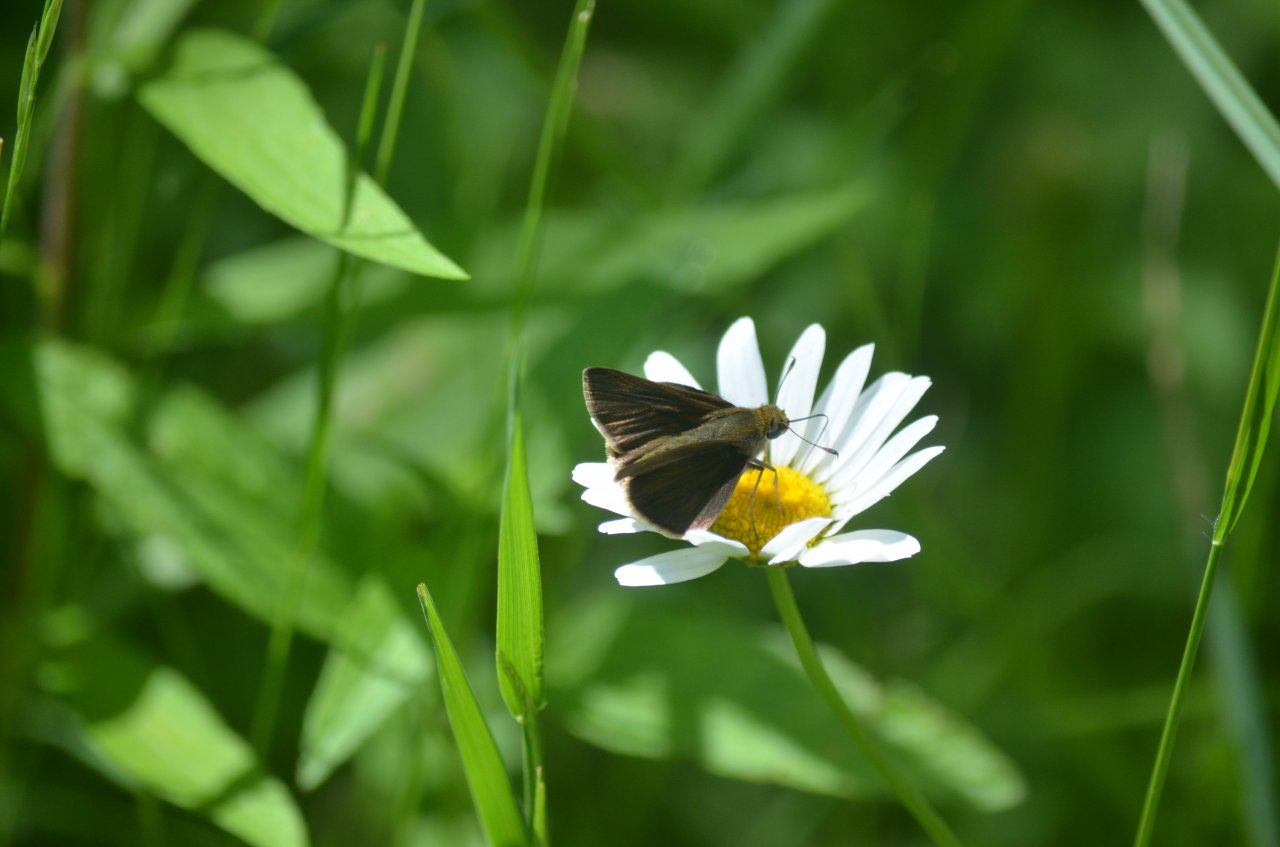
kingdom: Animalia
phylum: Arthropoda
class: Insecta
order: Lepidoptera
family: Hesperiidae
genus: Euphyes
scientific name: Euphyes vestris
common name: Dun Skipper
